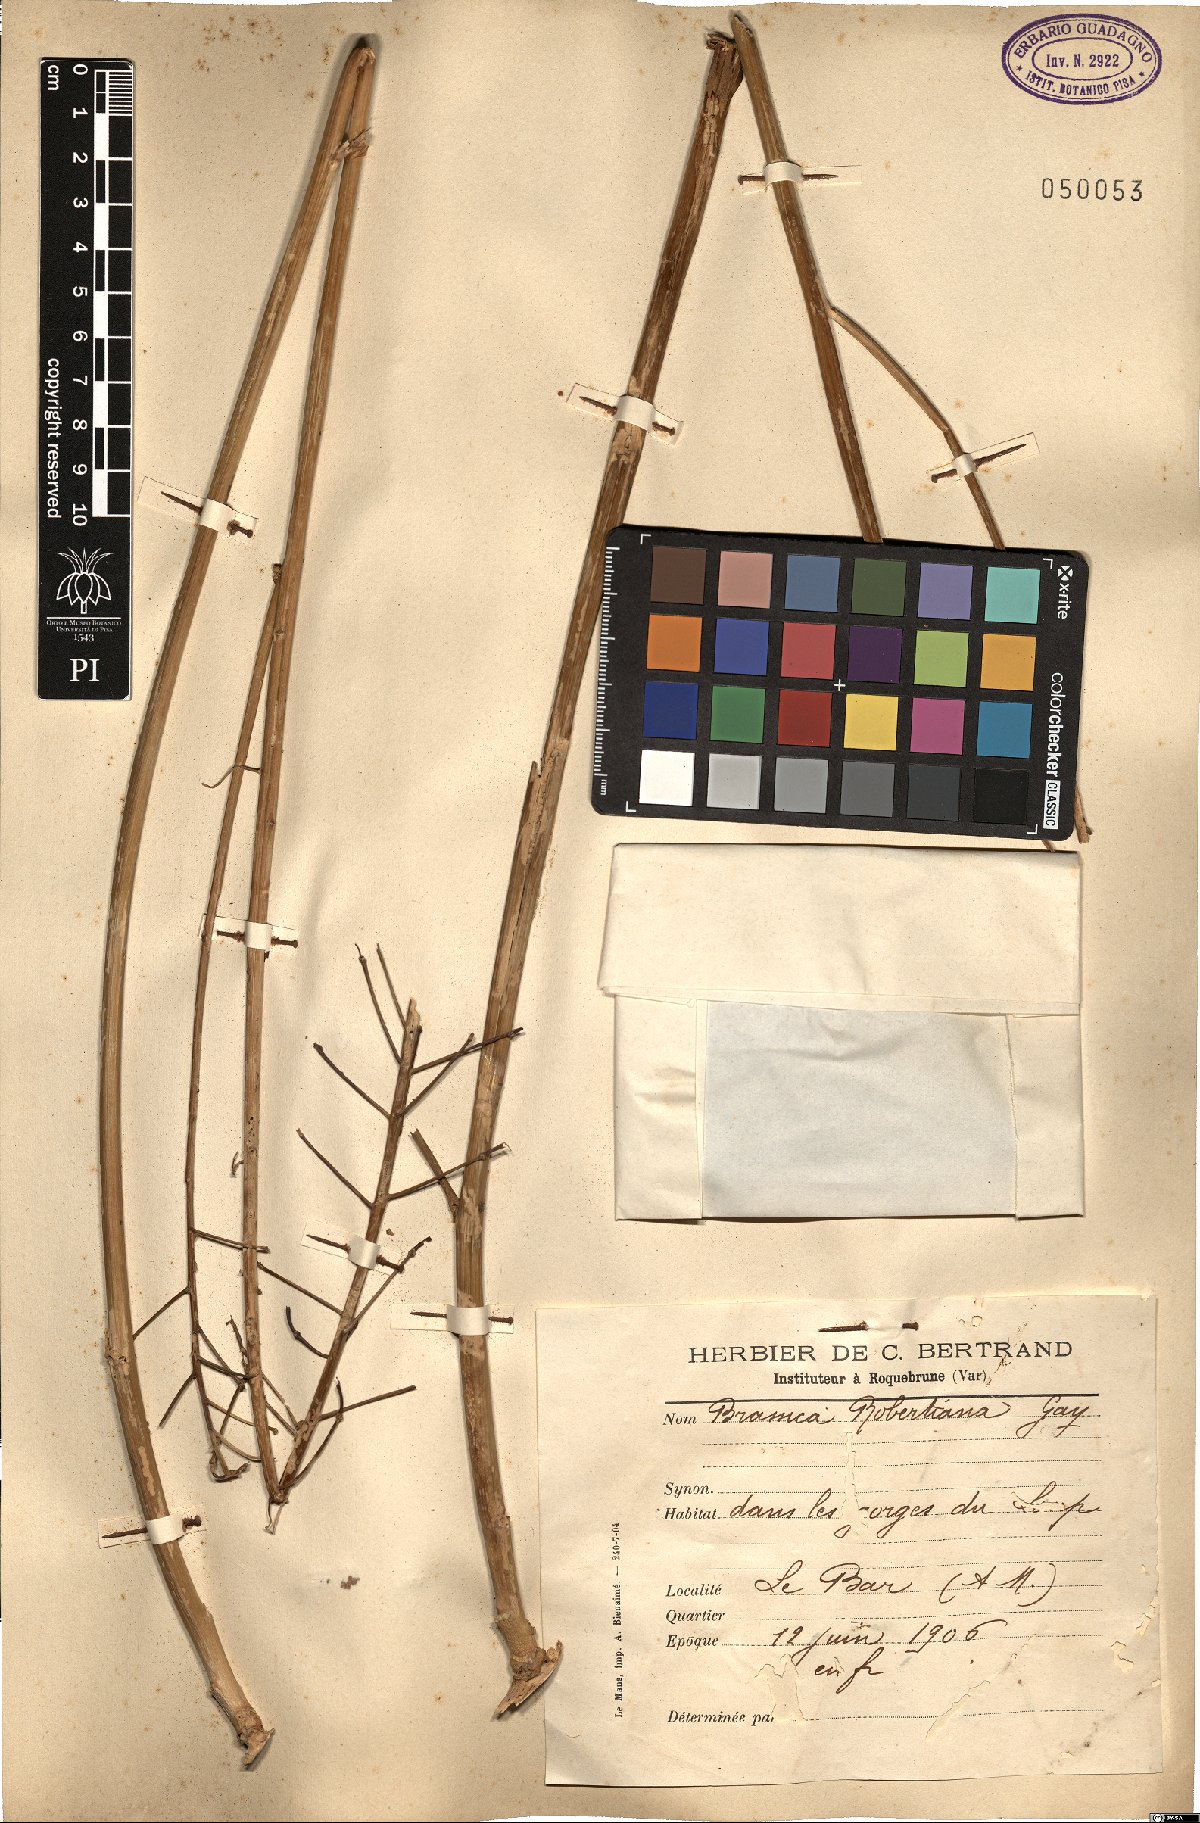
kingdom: Plantae
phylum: Tracheophyta
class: Magnoliopsida
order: Brassicales
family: Brassicaceae
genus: Brassica
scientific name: Brassica montana
